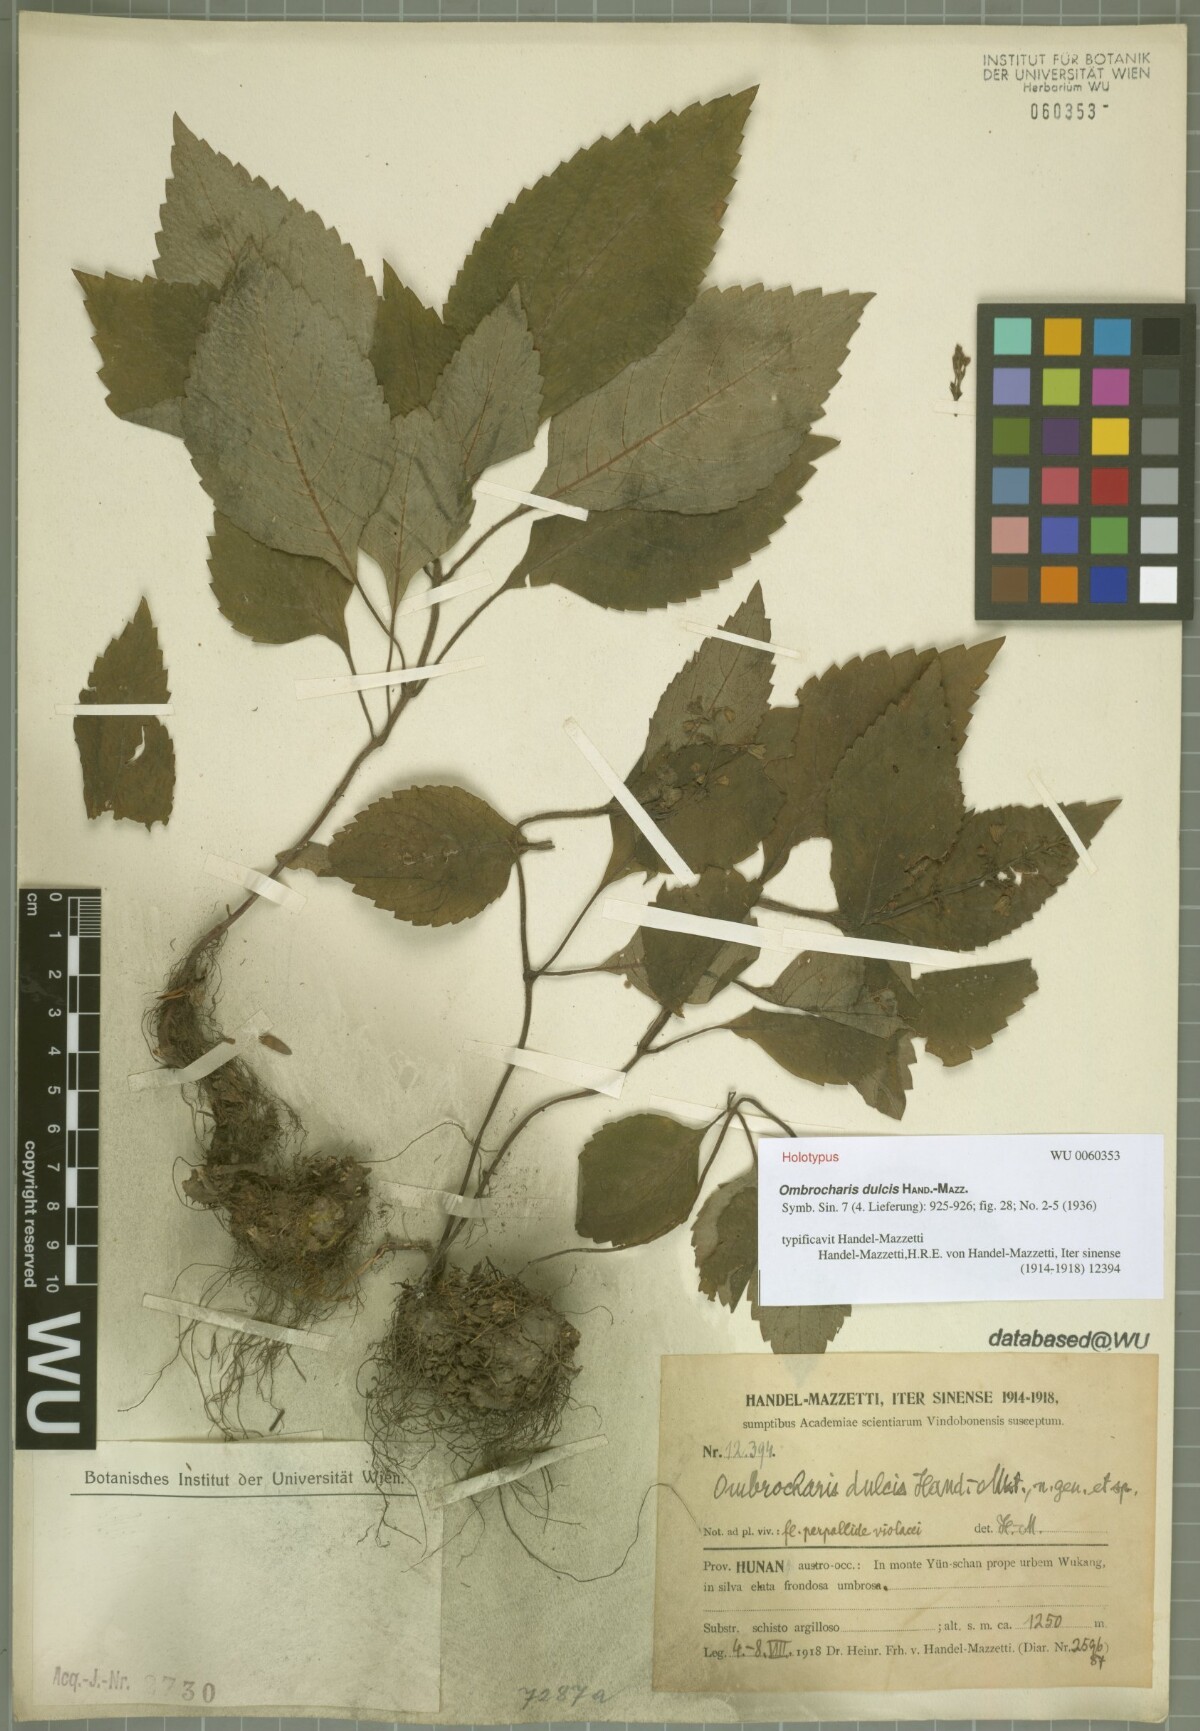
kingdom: Plantae
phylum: Tracheophyta
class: Magnoliopsida
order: Lamiales
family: Lamiaceae
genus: Ombrocharis
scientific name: Ombrocharis dulcis
